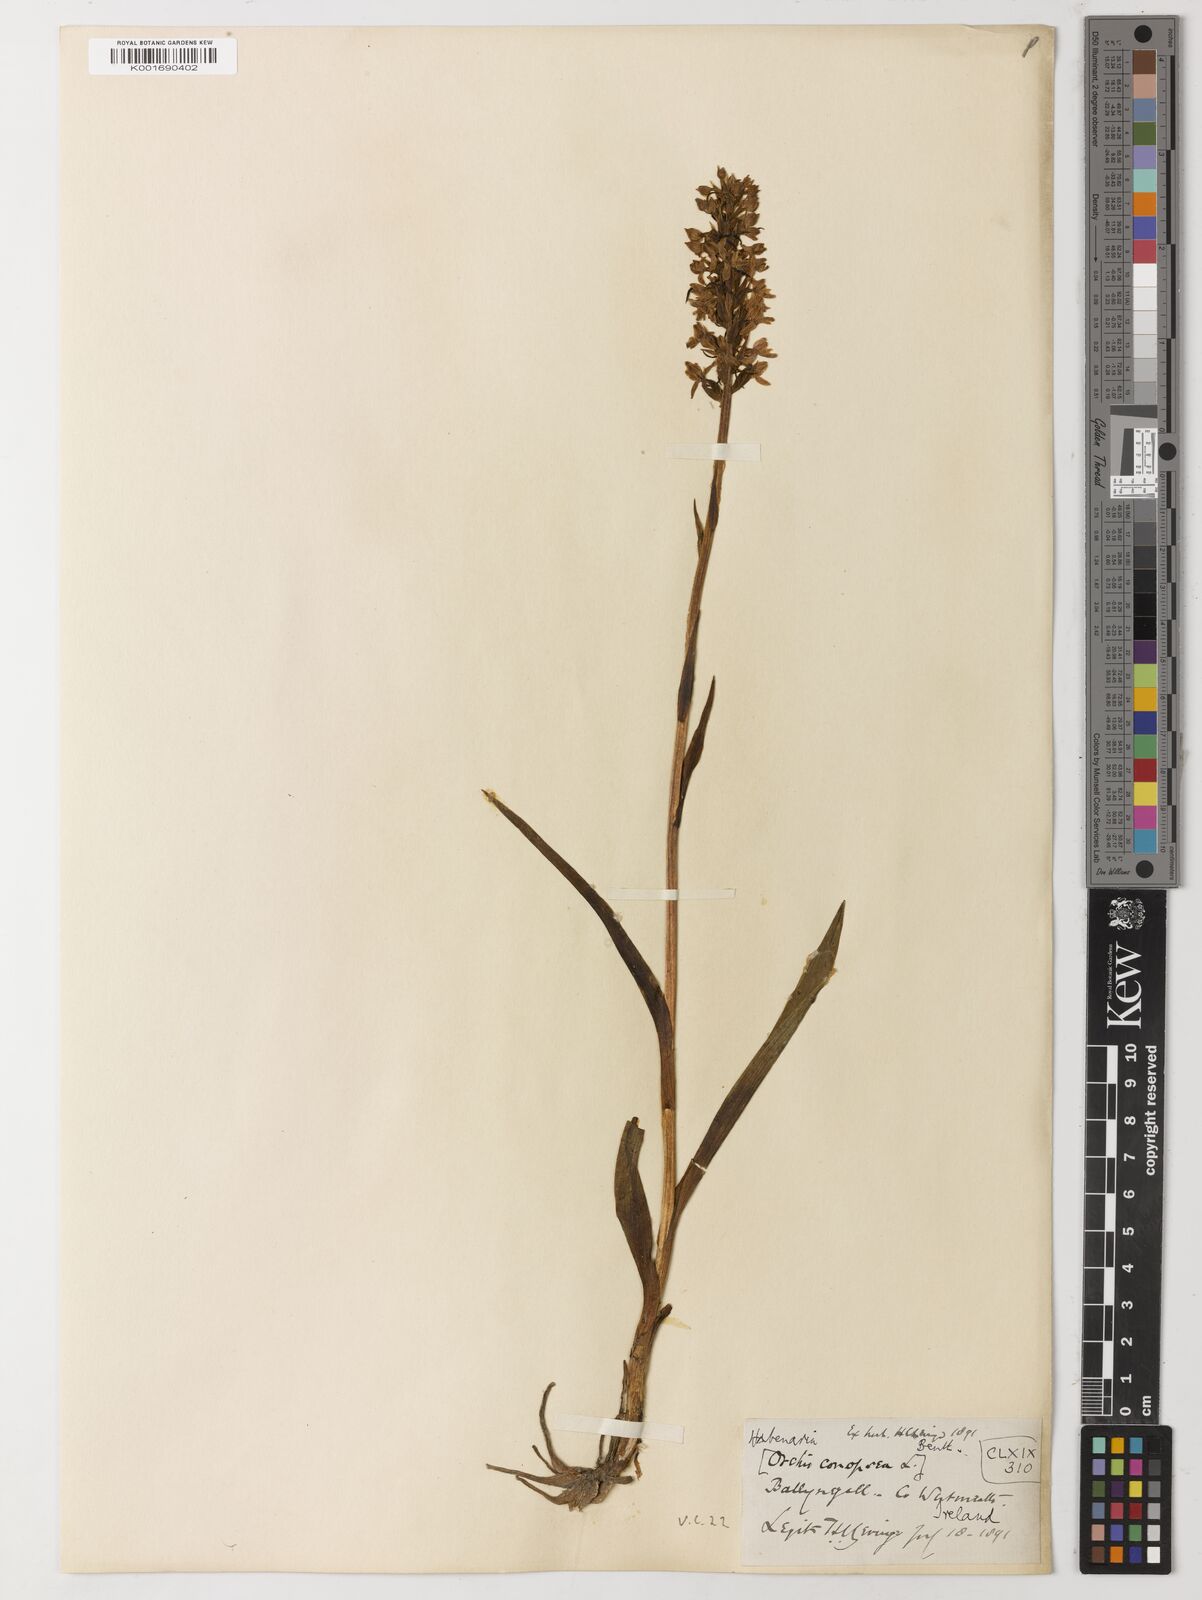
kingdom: Plantae
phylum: Tracheophyta
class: Magnoliopsida
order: Fabales
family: Fabaceae
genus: Havardia
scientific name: Havardia platyloba
